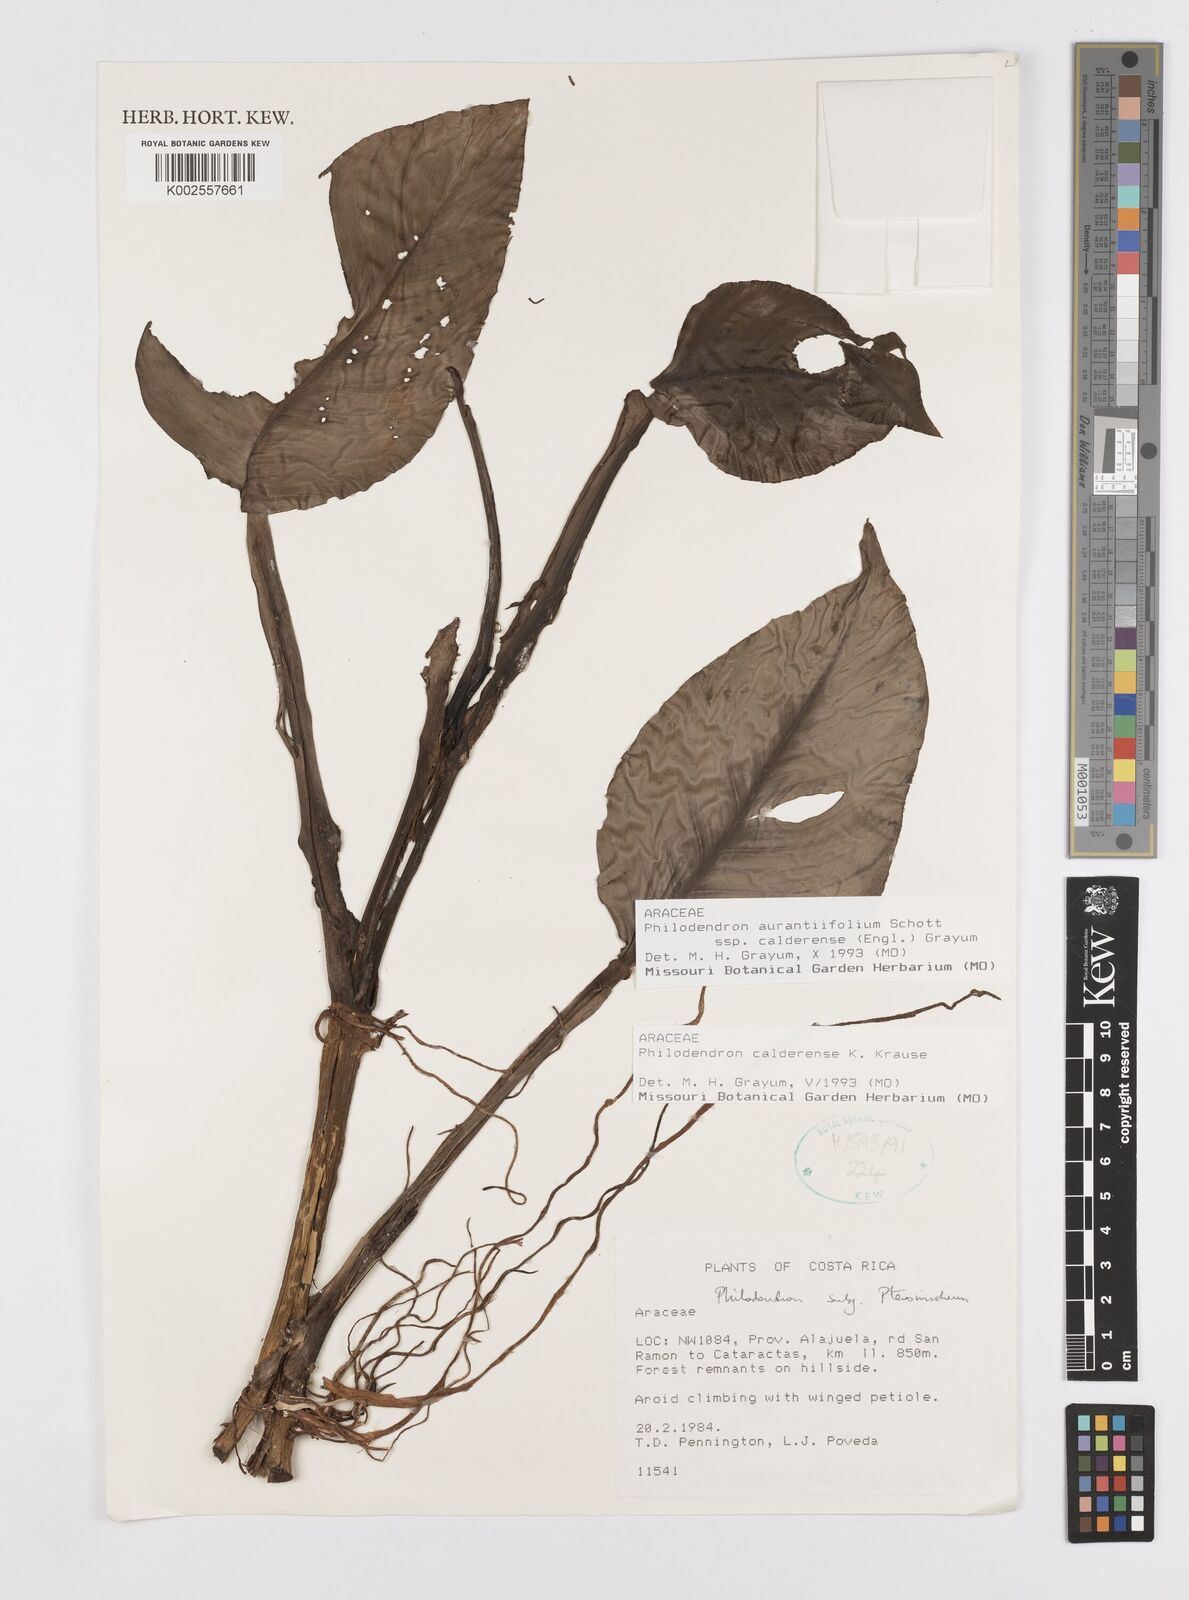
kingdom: Plantae
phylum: Tracheophyta
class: Liliopsida
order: Alismatales
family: Araceae
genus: Philodendron
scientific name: Philodendron aurantiifolium
